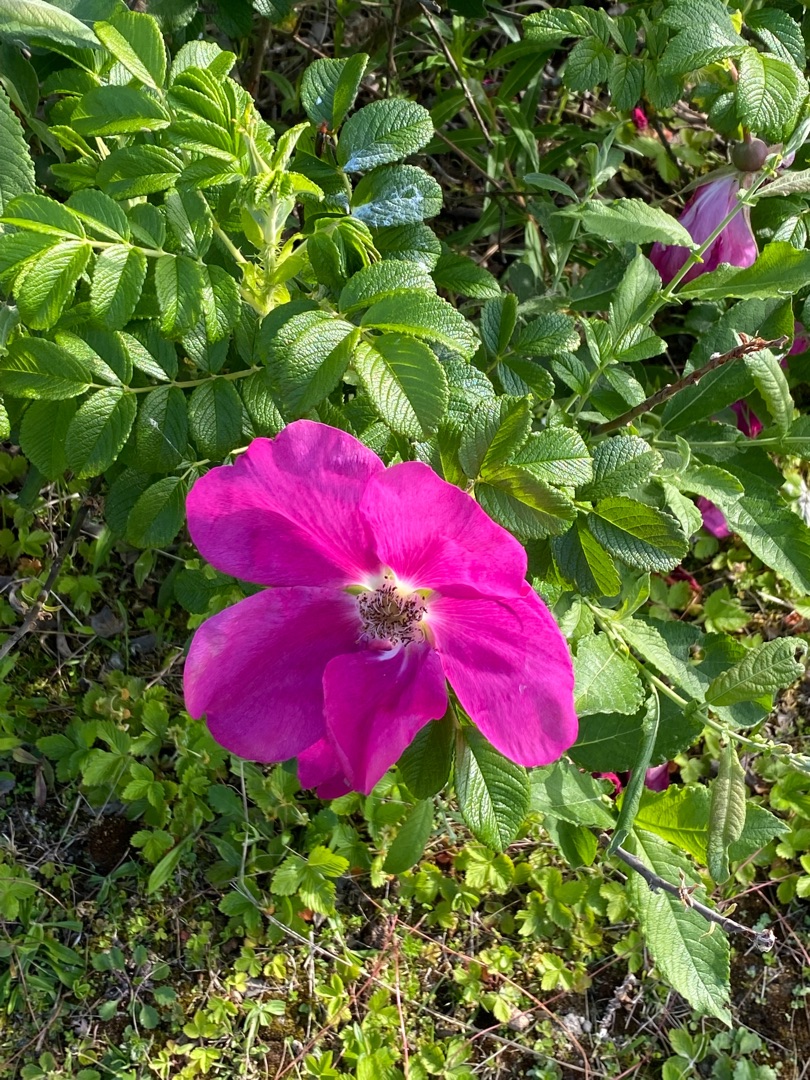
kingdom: Plantae
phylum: Tracheophyta
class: Magnoliopsida
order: Rosales
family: Rosaceae
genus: Rosa
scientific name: Rosa rugosa
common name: Rynket rose
